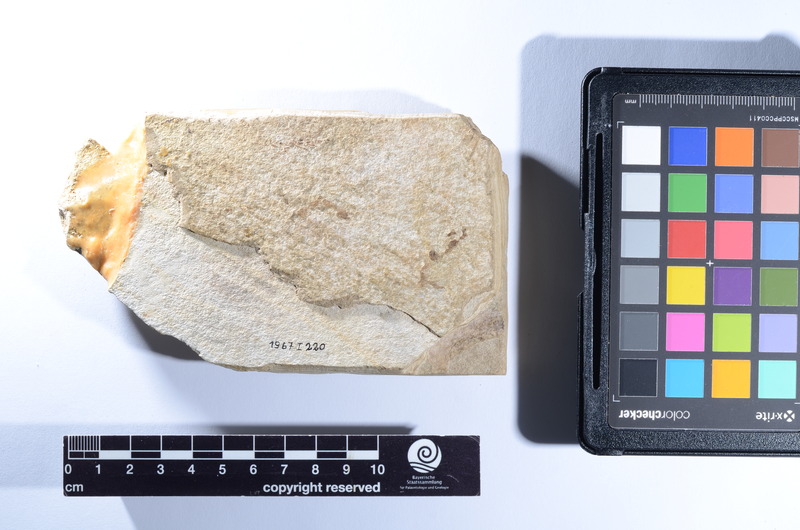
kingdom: Animalia
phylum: Chordata
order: Zeiformes
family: Zeidae
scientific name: Zeidae
